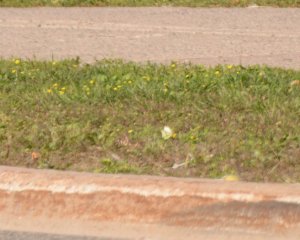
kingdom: Animalia
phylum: Arthropoda
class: Insecta
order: Lepidoptera
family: Pieridae
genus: Pieris
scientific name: Pieris rapae
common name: Cabbage White
